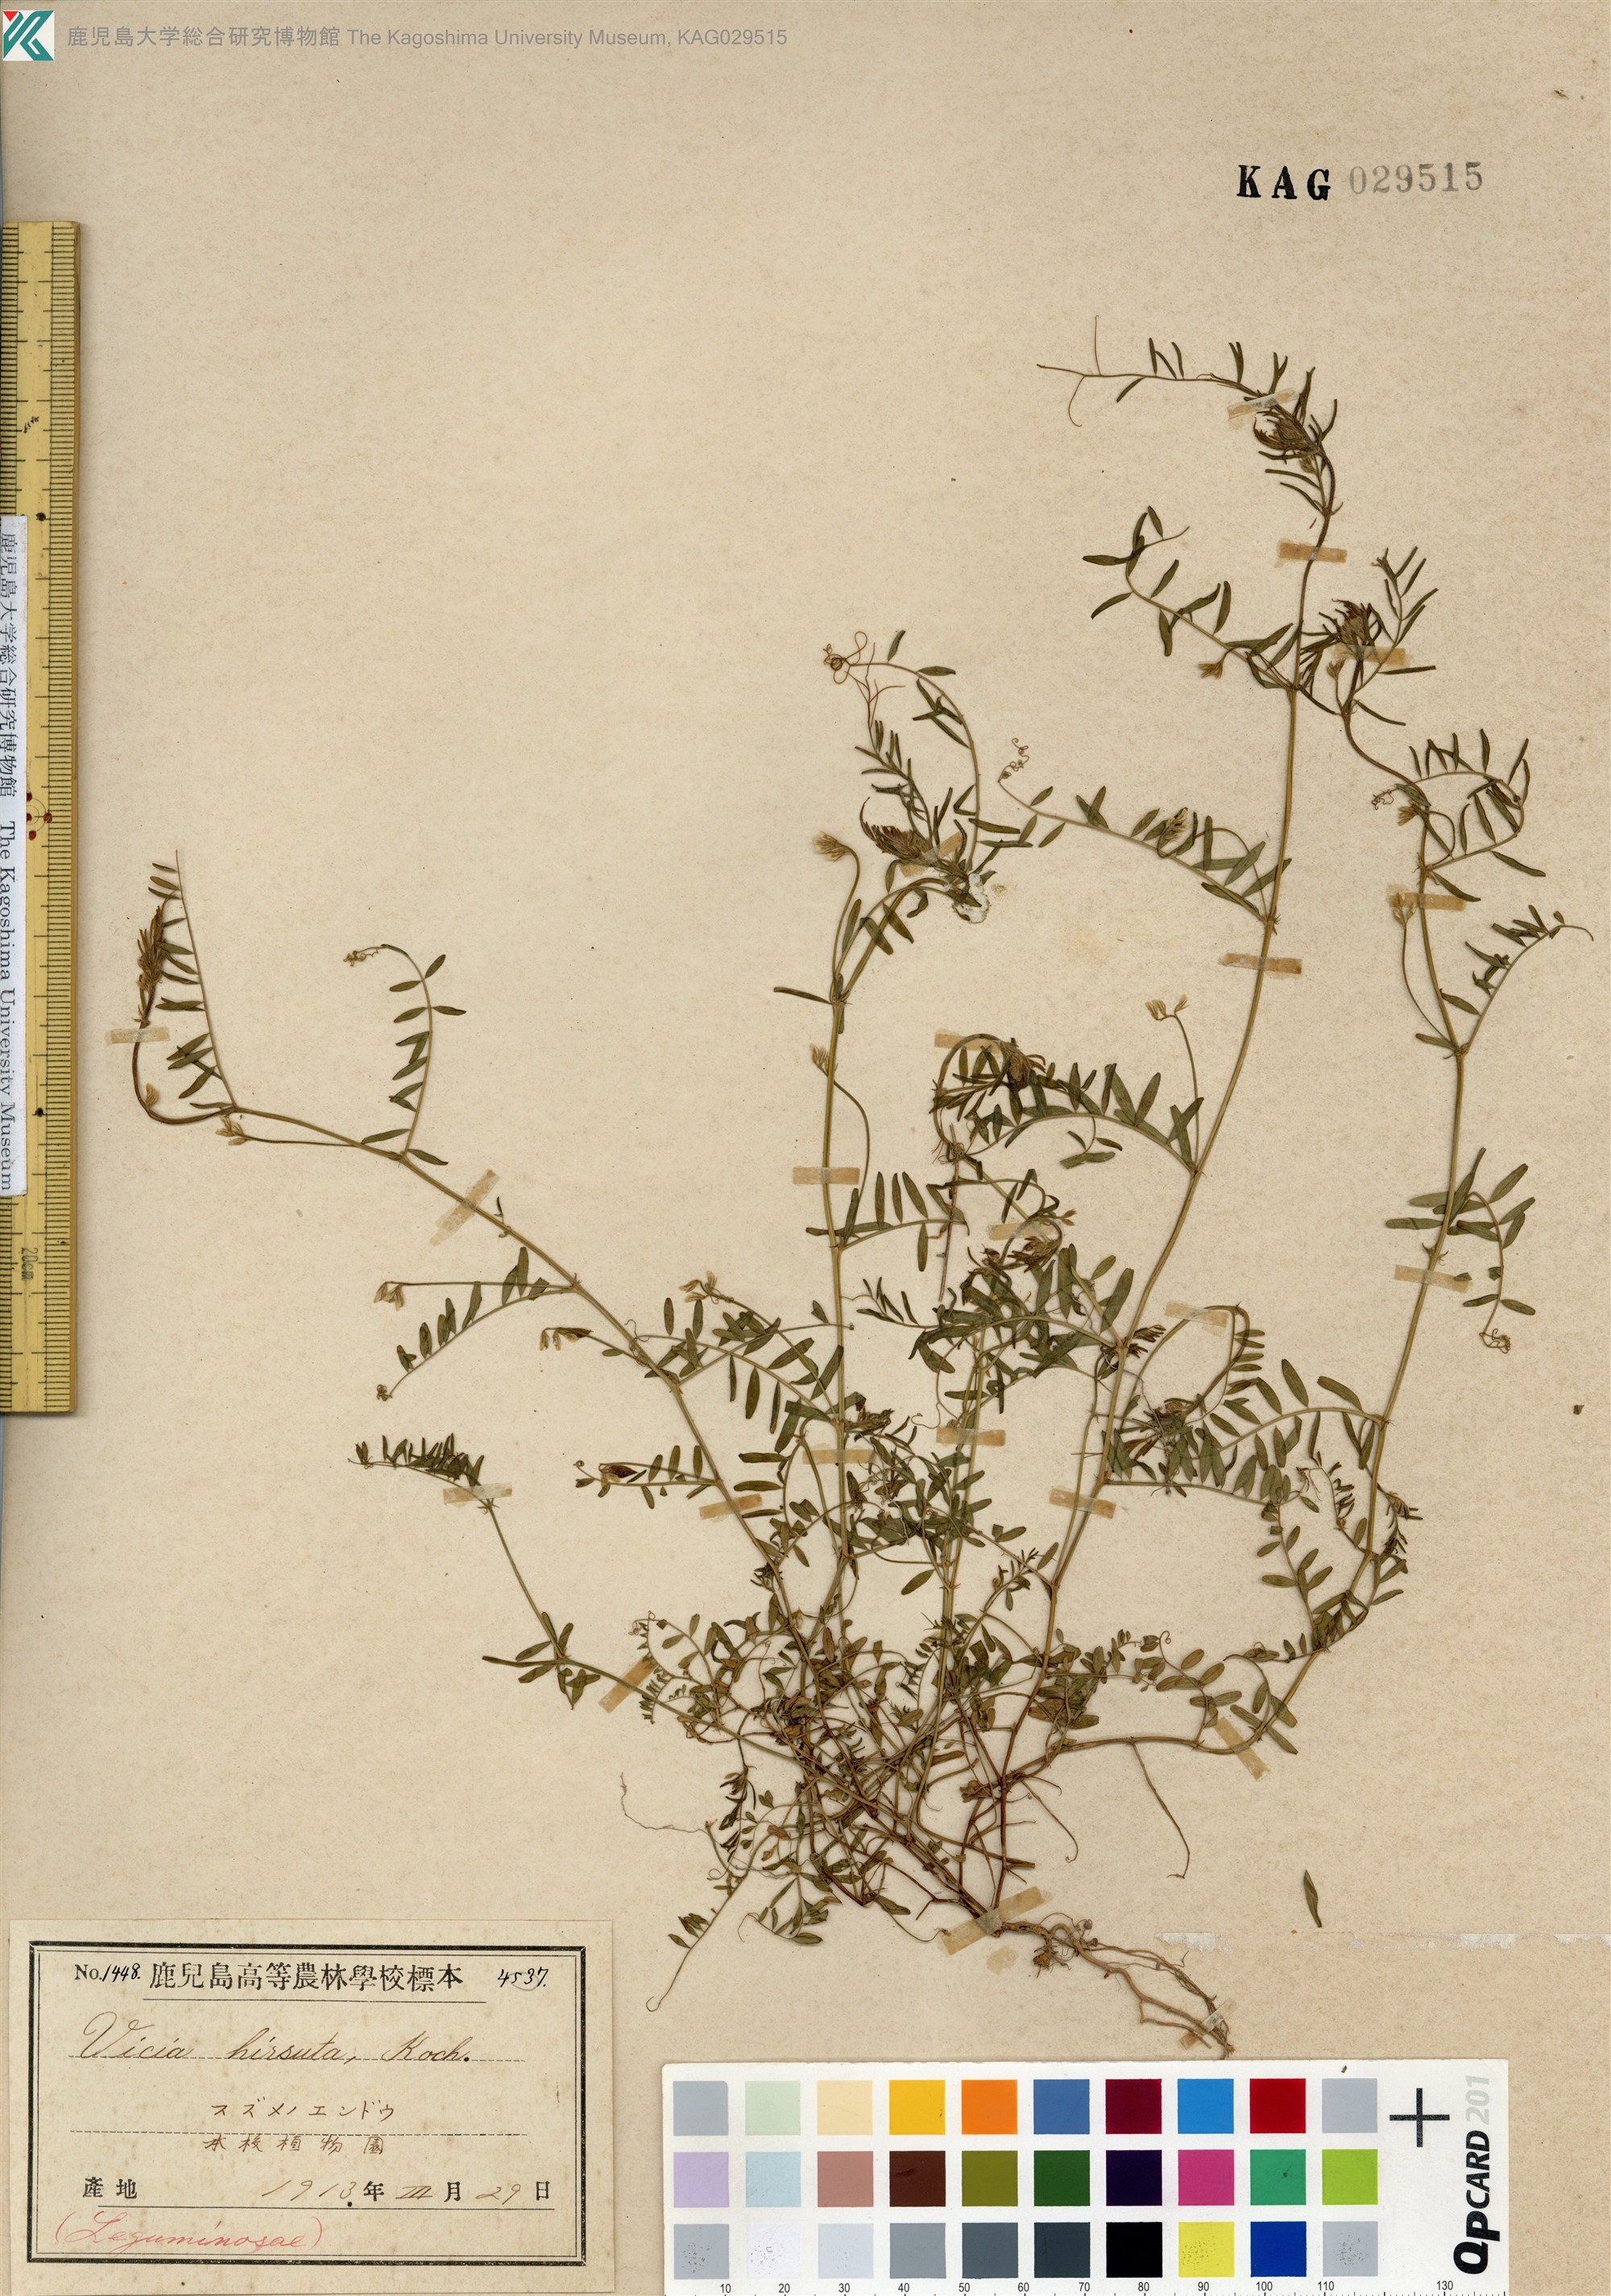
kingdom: Plantae
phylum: Tracheophyta
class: Magnoliopsida
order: Fabales
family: Fabaceae
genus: Vicia
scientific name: Vicia hirsuta
